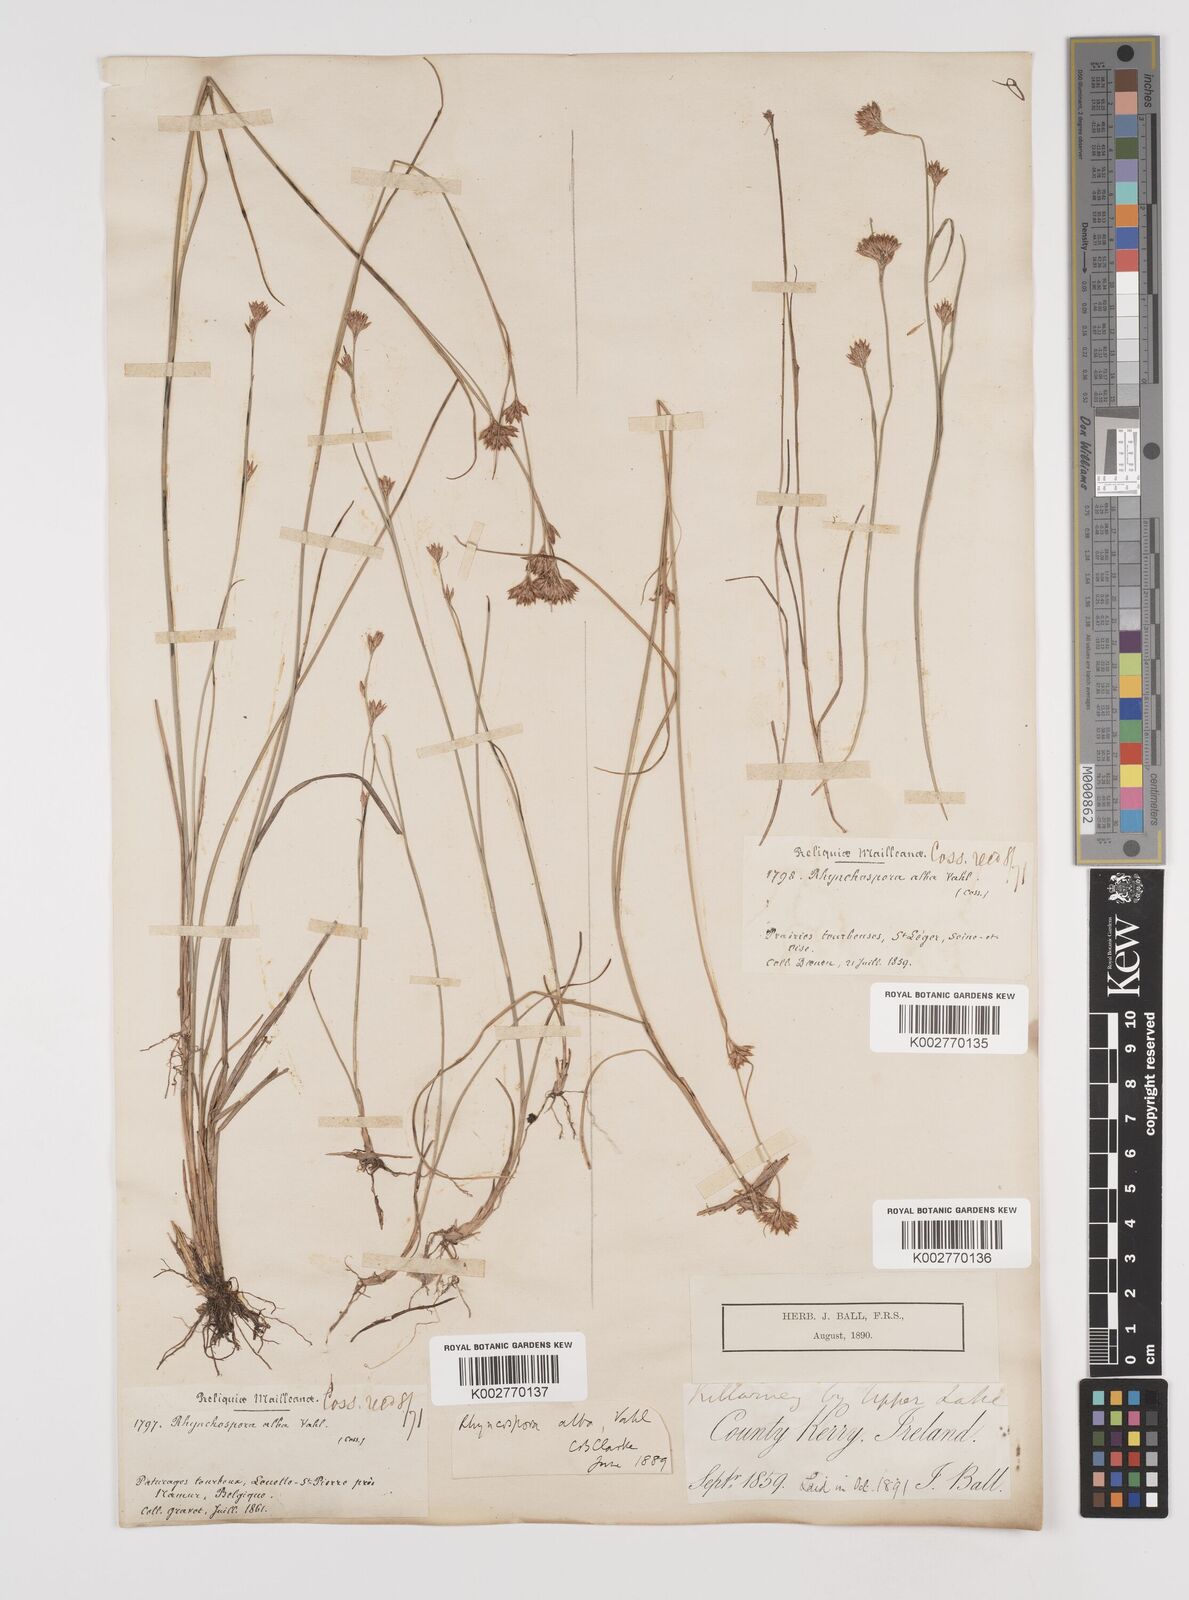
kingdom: Plantae
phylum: Tracheophyta
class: Liliopsida
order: Poales
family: Cyperaceae
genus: Rhynchospora
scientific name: Rhynchospora alba
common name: White beak-sedge
